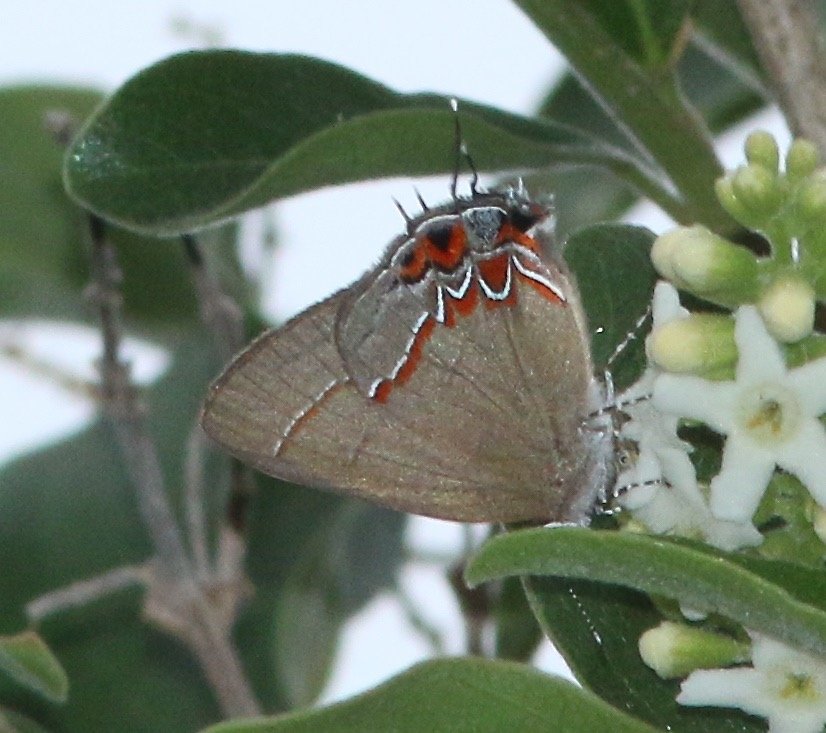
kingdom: Animalia
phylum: Arthropoda
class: Insecta
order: Lepidoptera
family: Lycaenidae
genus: Calycopis
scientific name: Calycopis isobeon
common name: Dusky-blue Groundstreak
